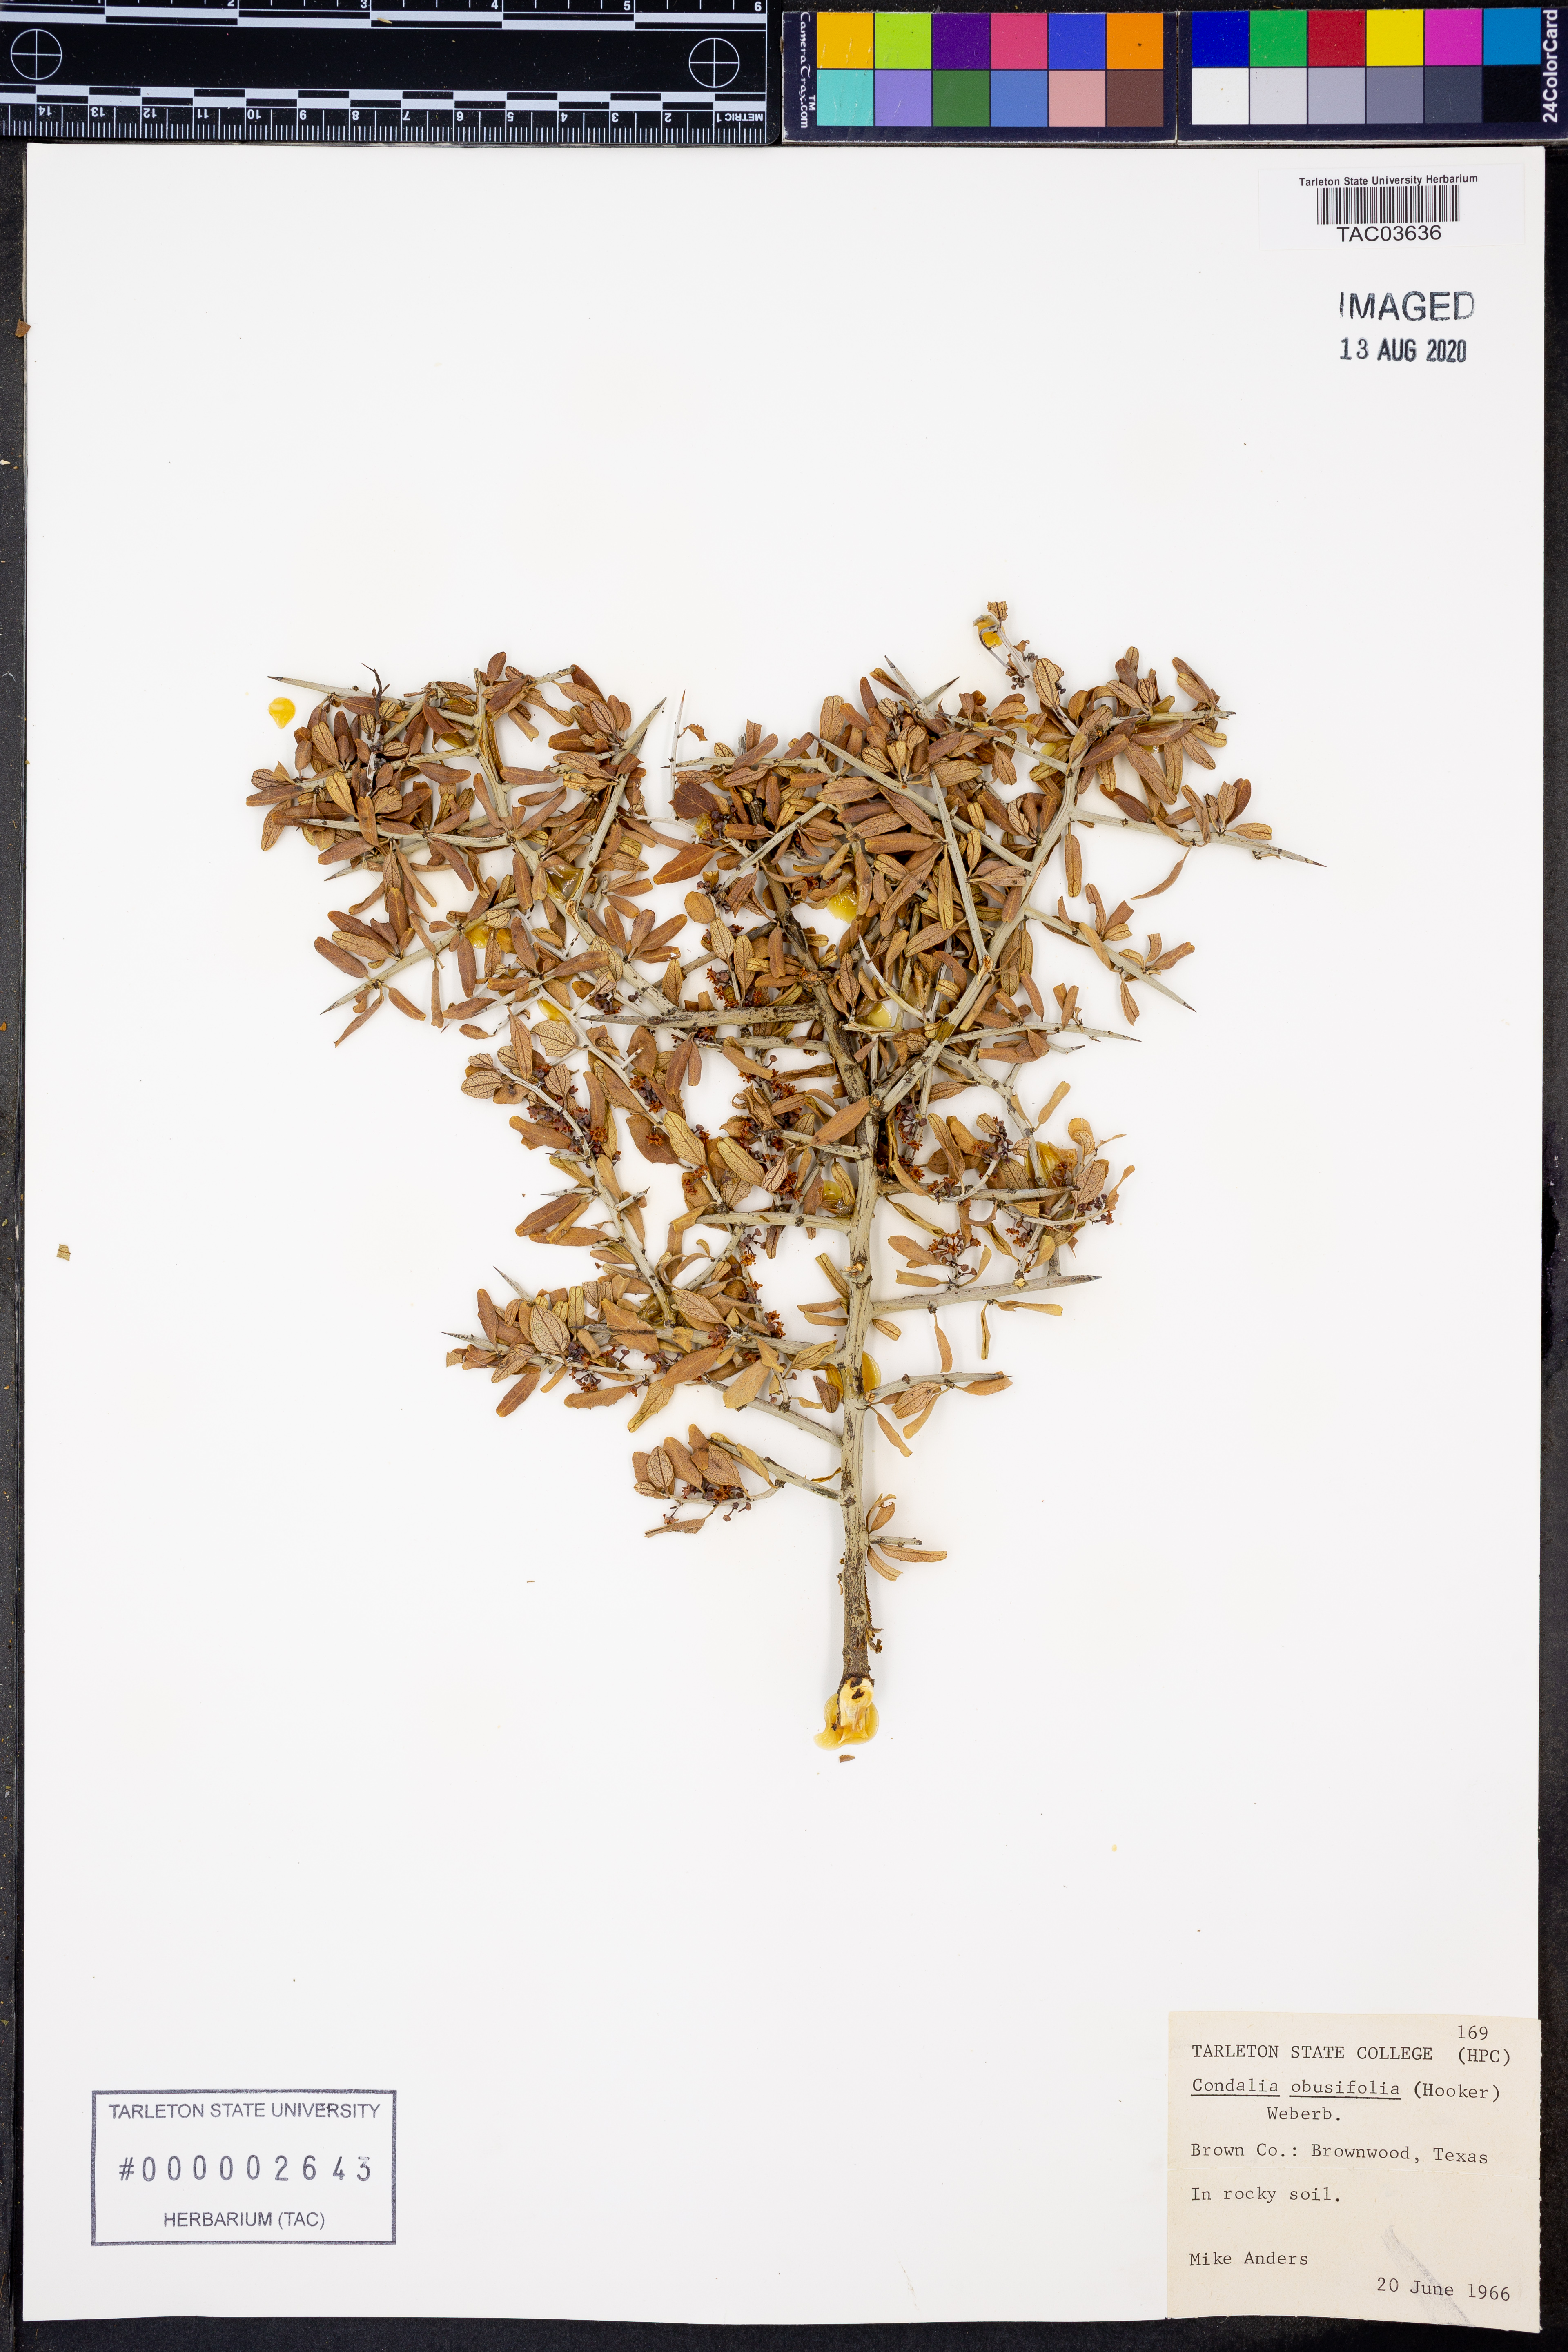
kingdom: Plantae
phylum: Tracheophyta
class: Magnoliopsida
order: Rosales
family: Rhamnaceae
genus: Sarcomphalus
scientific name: Sarcomphalus obtusifolius
